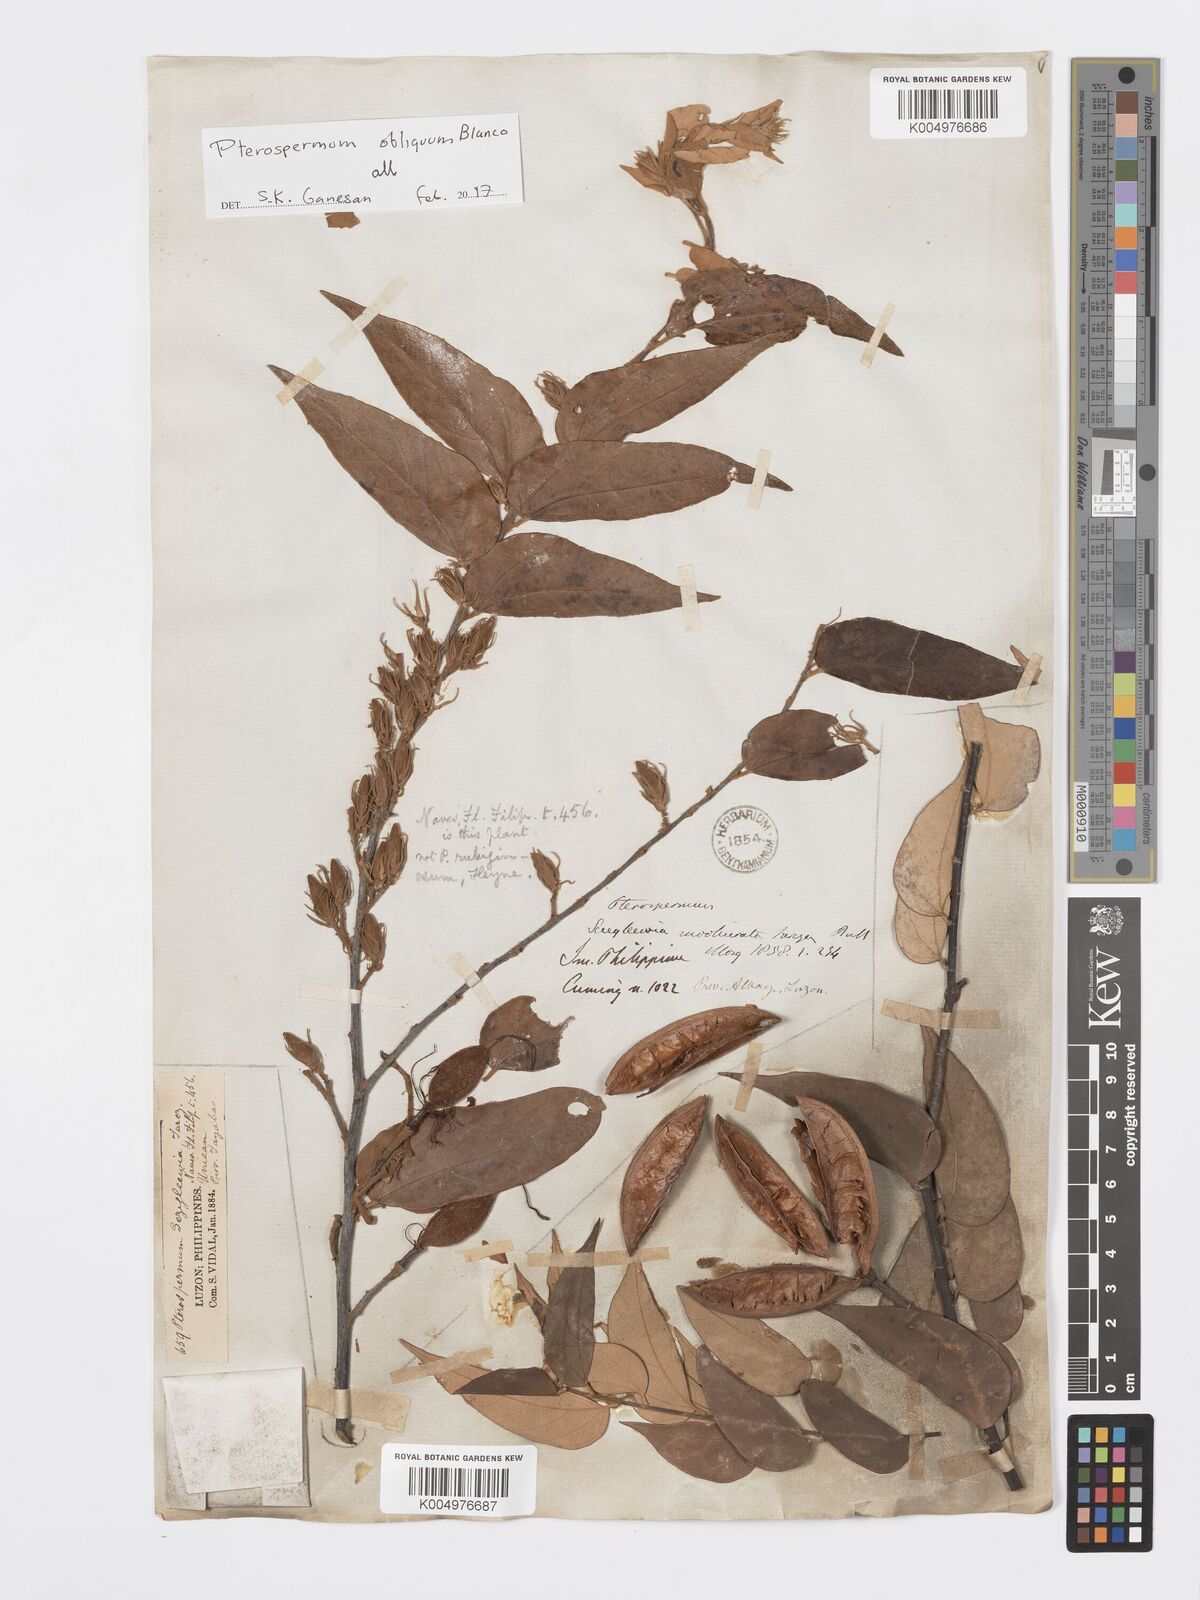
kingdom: Plantae
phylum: Tracheophyta
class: Magnoliopsida
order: Malvales
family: Malvaceae
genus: Pterospermum
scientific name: Pterospermum obliquum
